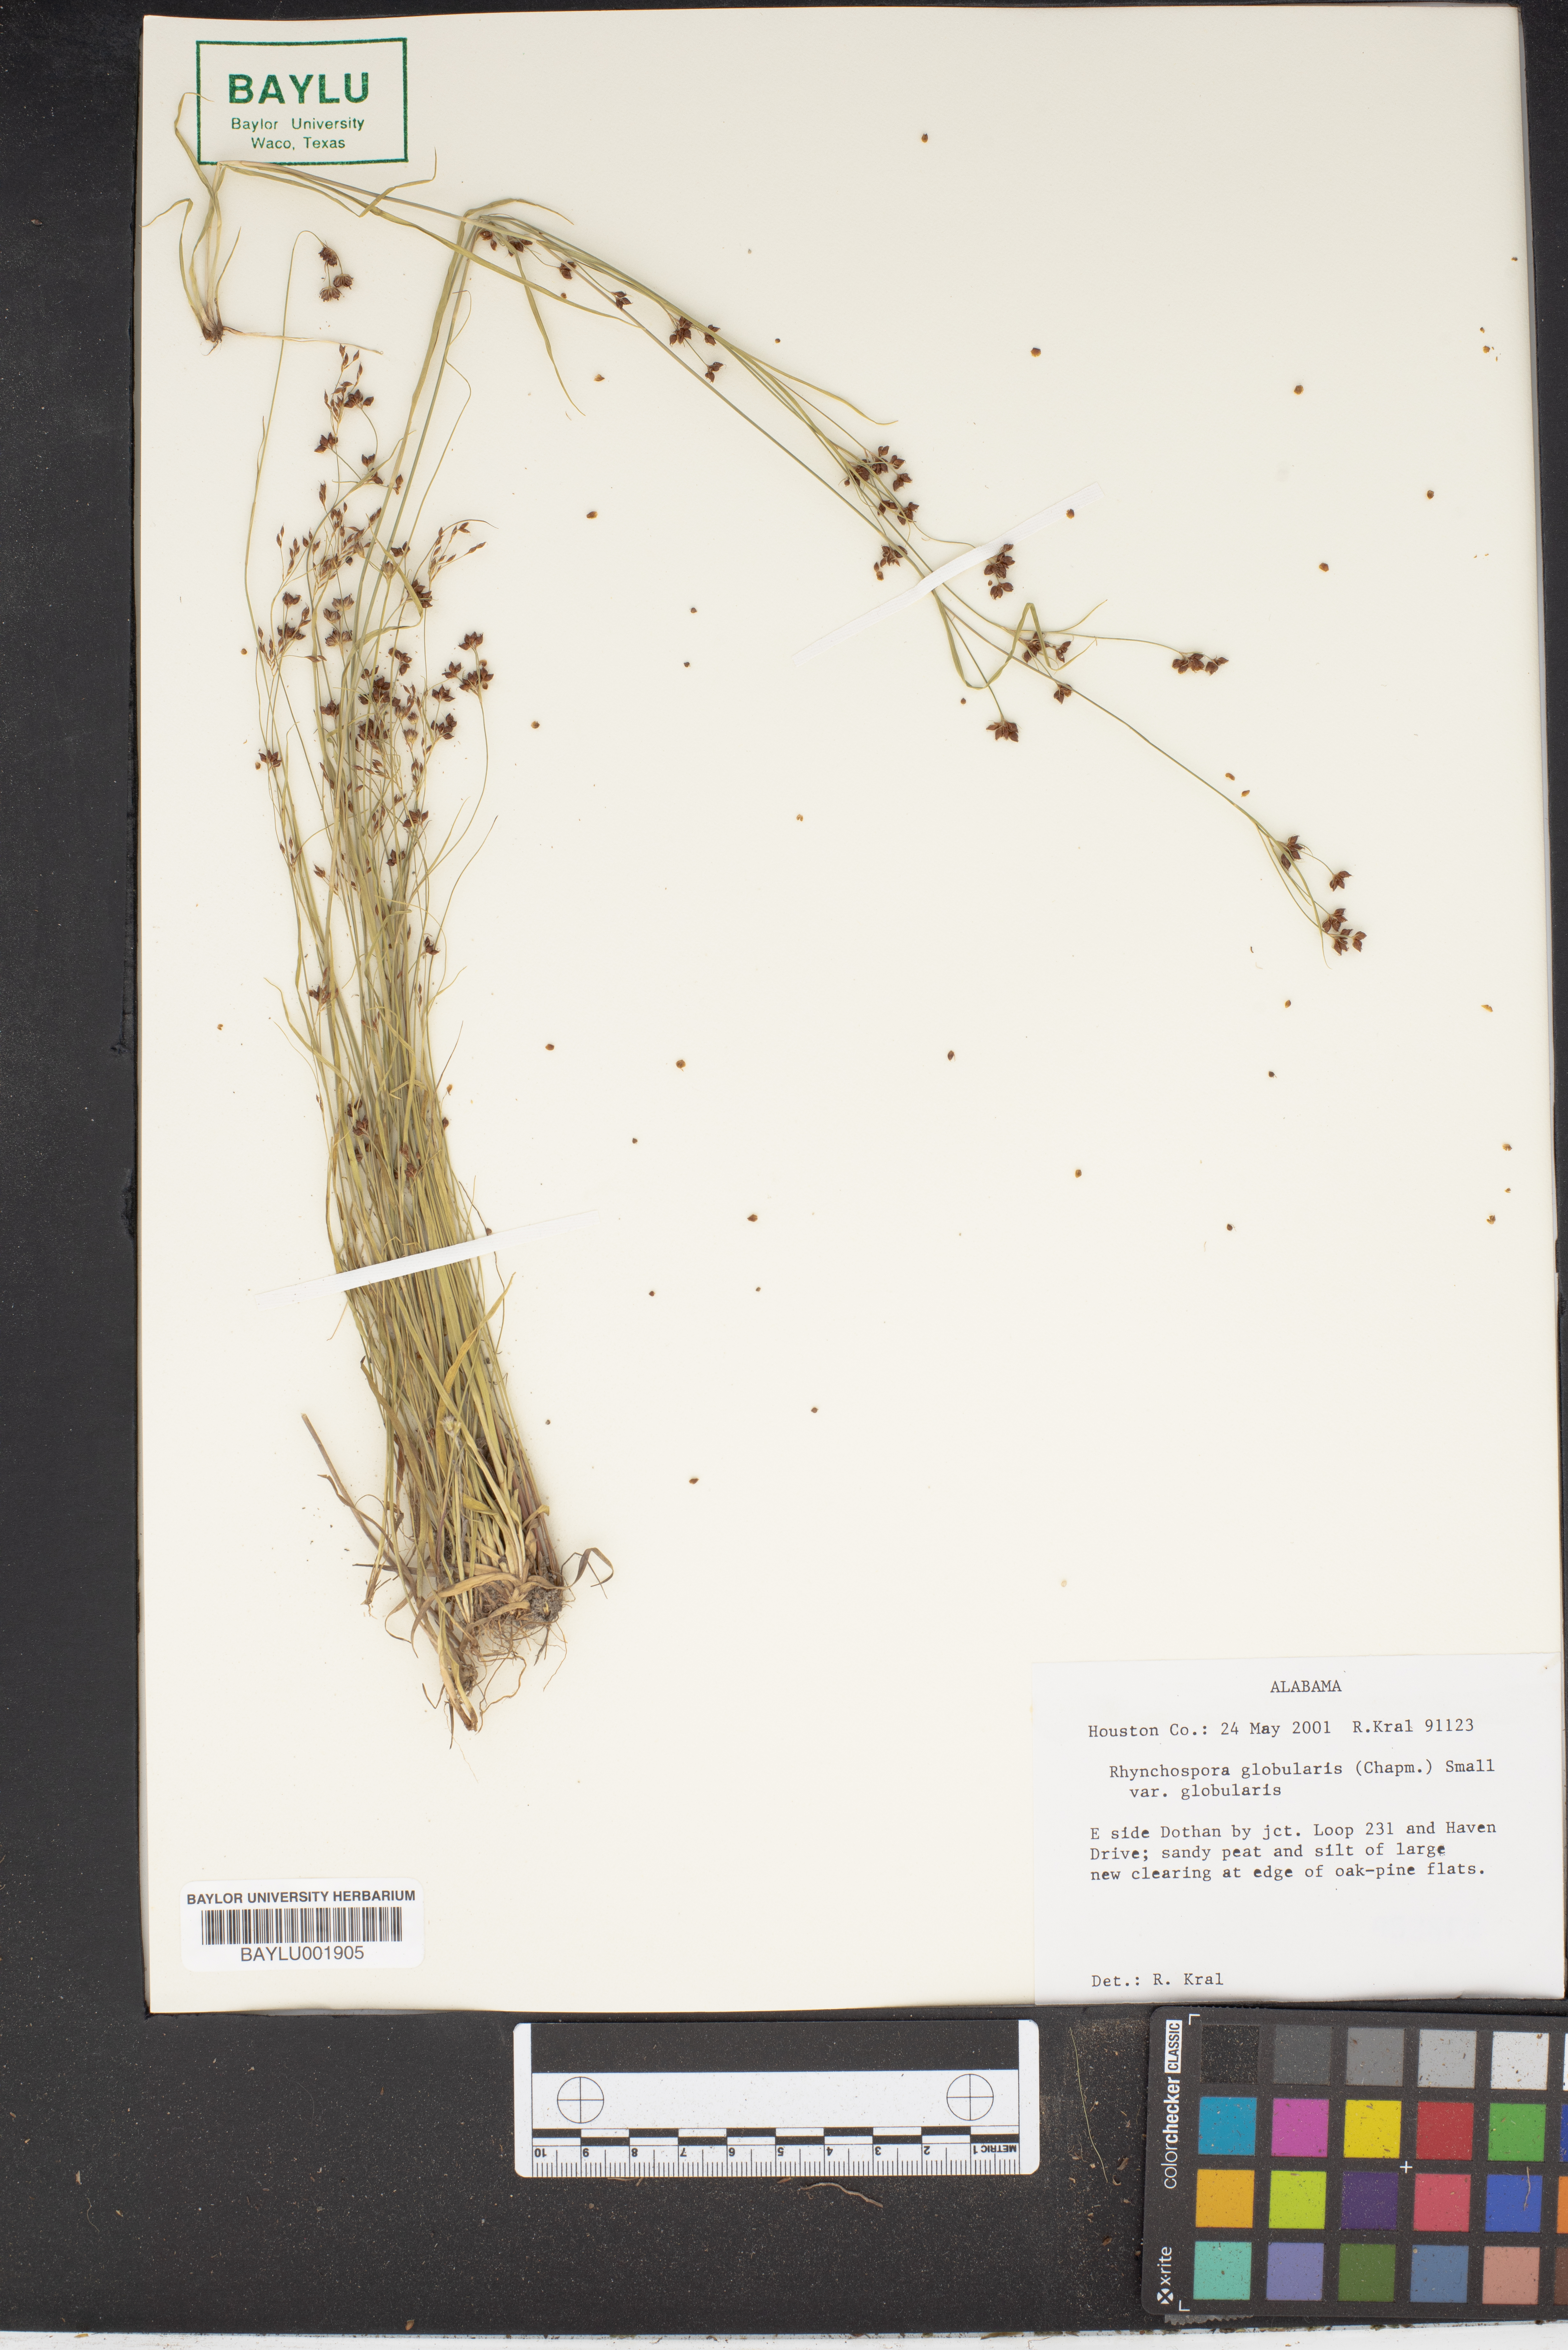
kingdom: Plantae
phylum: Tracheophyta
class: Liliopsida
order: Poales
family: Cyperaceae
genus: Rhynchospora
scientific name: Rhynchospora globularis
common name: Globe beaksedge
